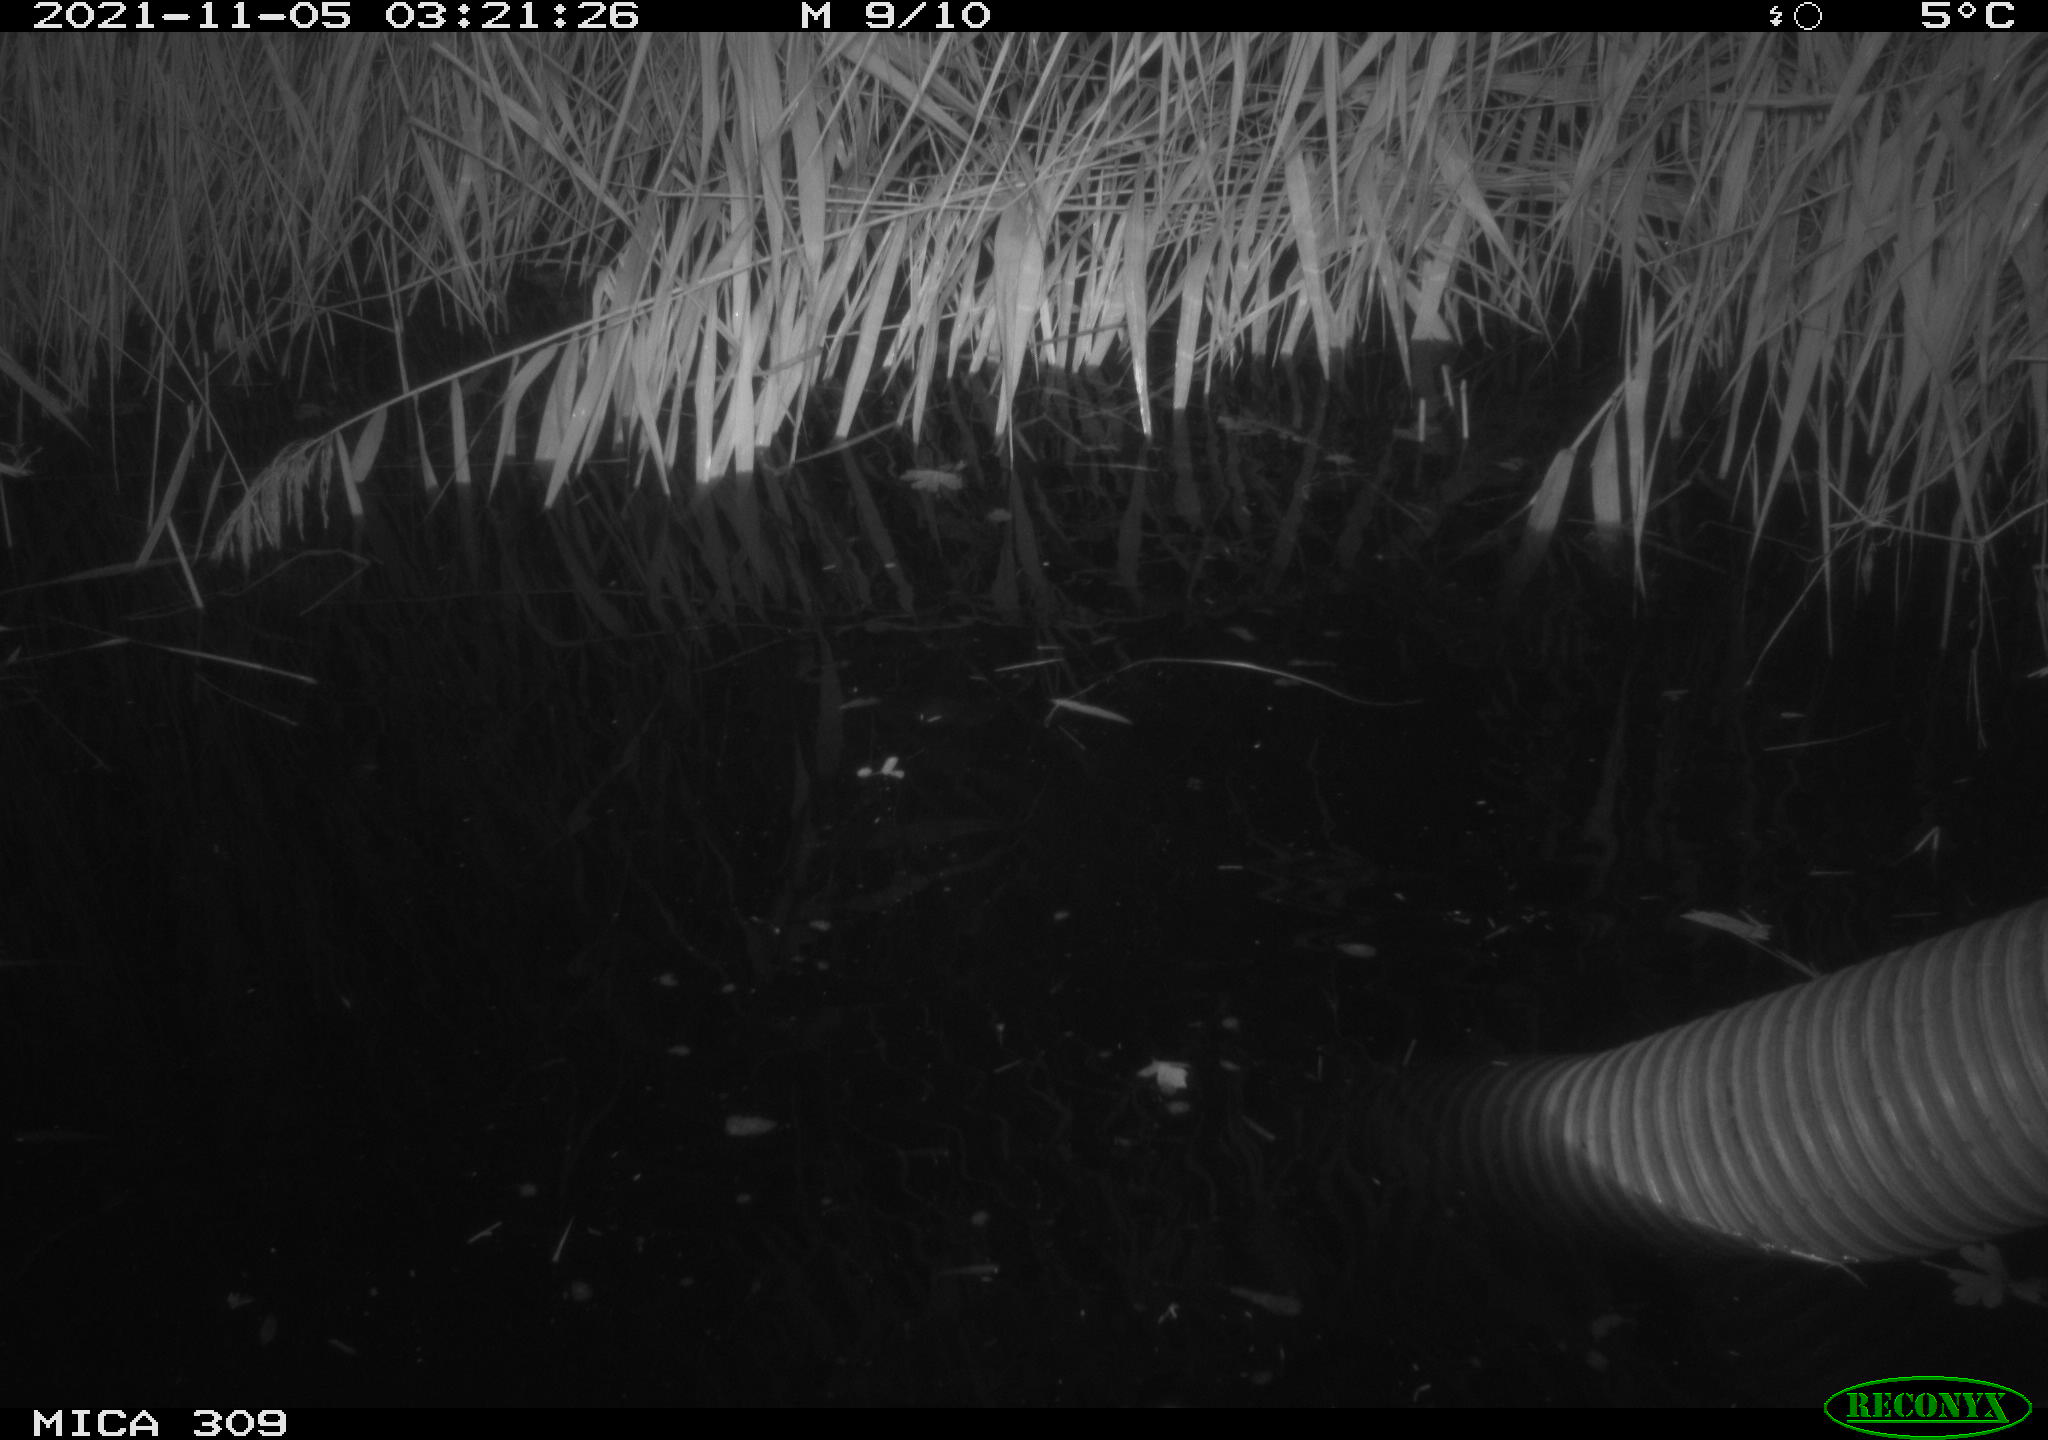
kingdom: Animalia
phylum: Chordata
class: Mammalia
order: Rodentia
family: Muridae
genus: Rattus
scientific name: Rattus norvegicus
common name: Brown rat
